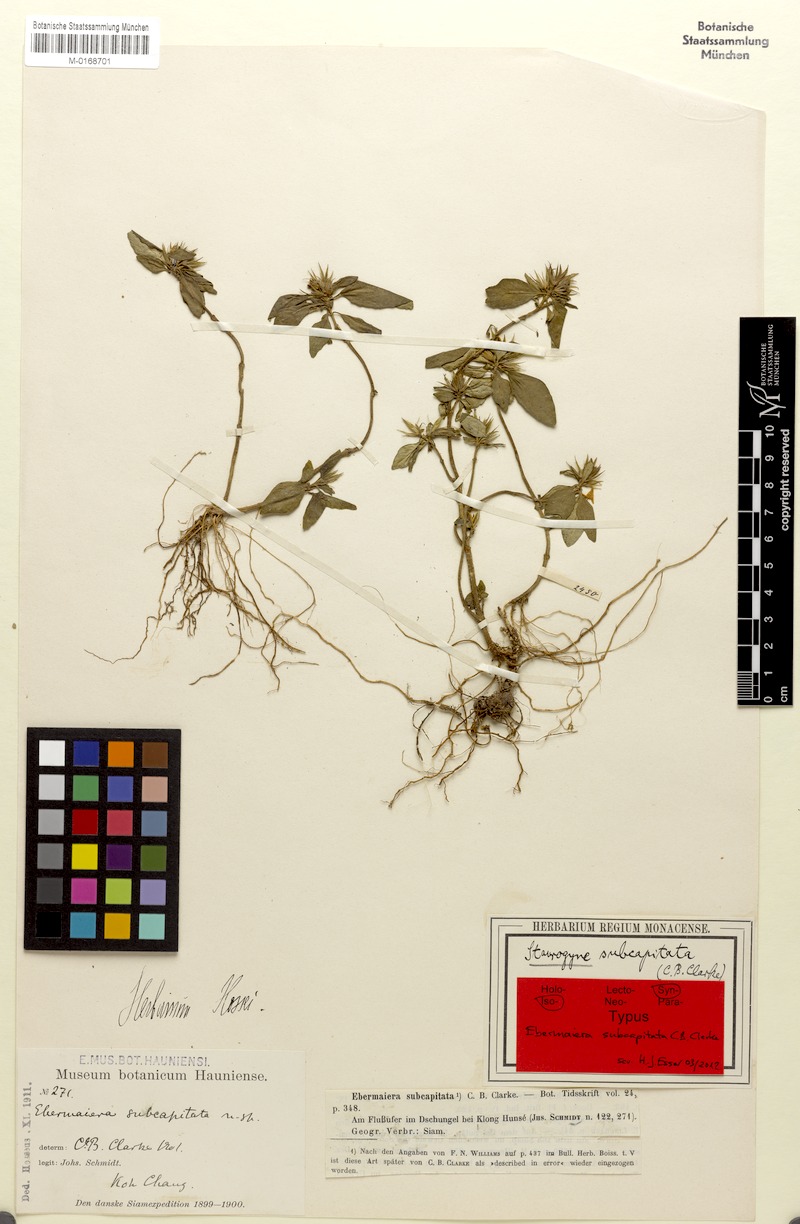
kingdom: Plantae
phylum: Tracheophyta
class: Magnoliopsida
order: Lamiales
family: Acanthaceae
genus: Staurogyne
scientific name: Staurogyne setigera
